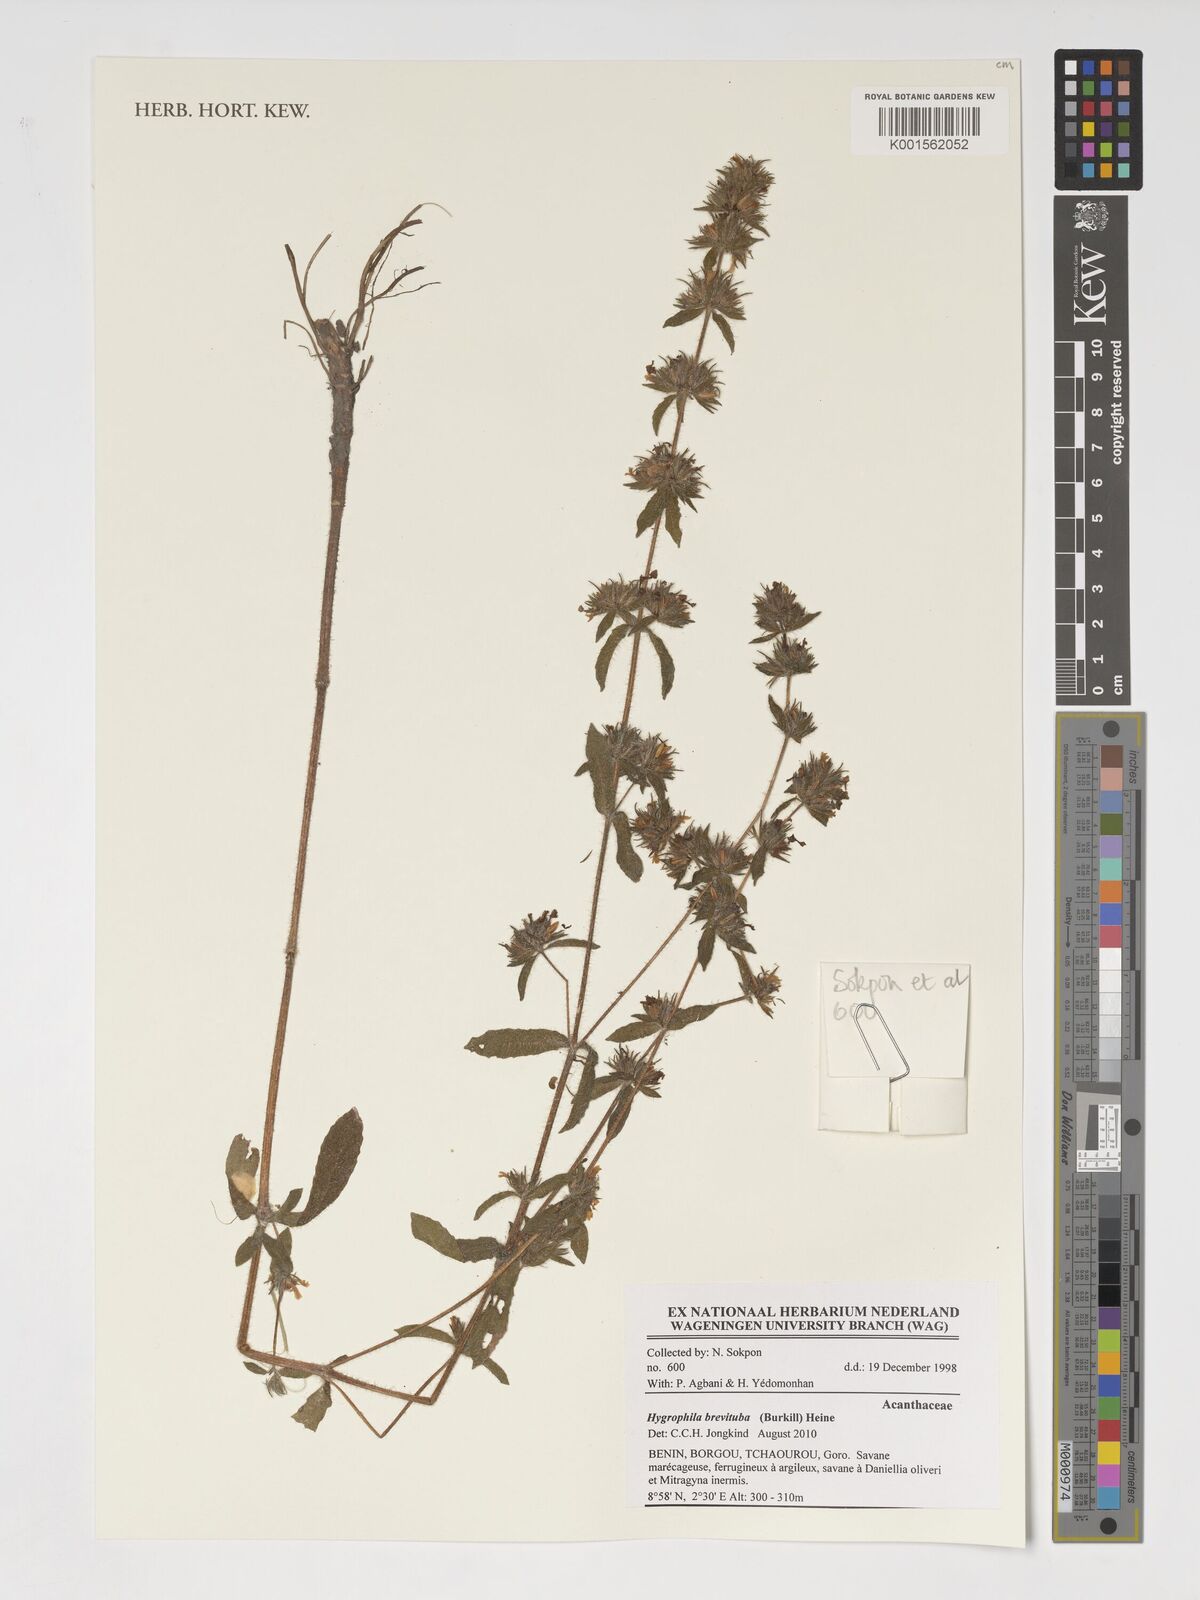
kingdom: Plantae
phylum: Tracheophyta
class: Magnoliopsida
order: Lamiales
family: Acanthaceae
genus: Hygrophila
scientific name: Hygrophila brevituba
